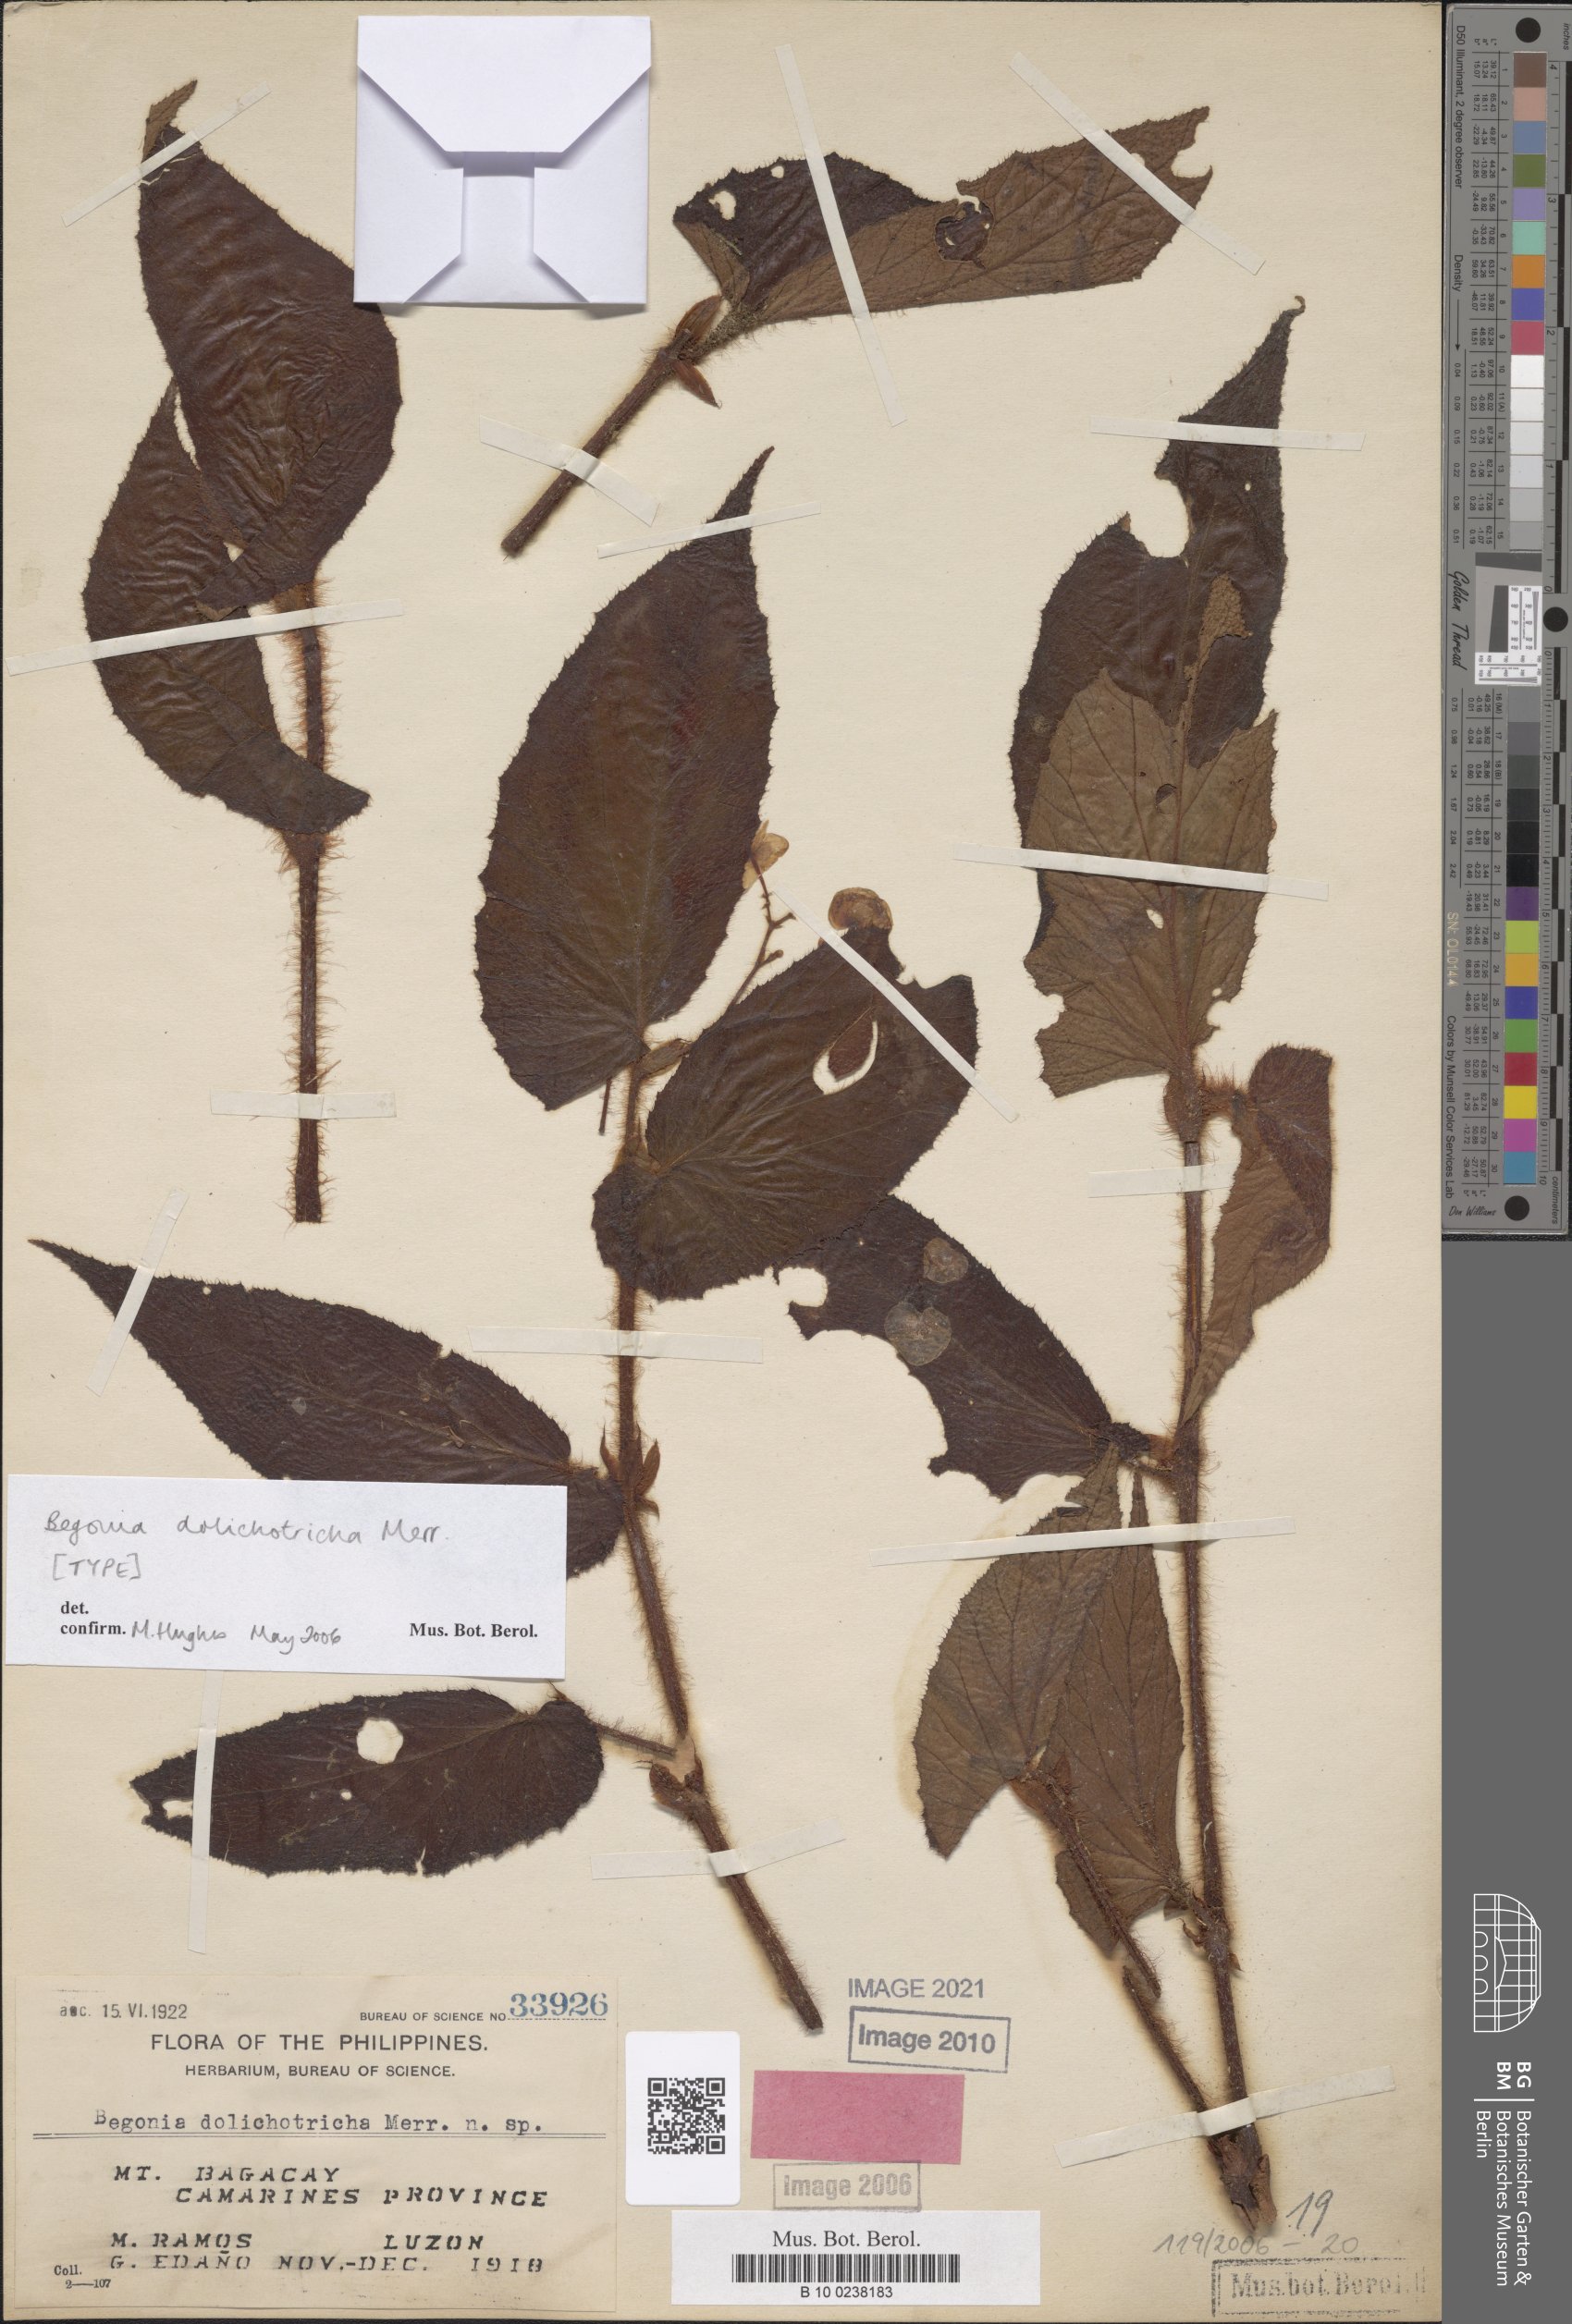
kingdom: Plantae
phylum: Tracheophyta
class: Magnoliopsida
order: Cucurbitales
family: Begoniaceae
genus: Begonia
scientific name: Begonia dolichotricha
